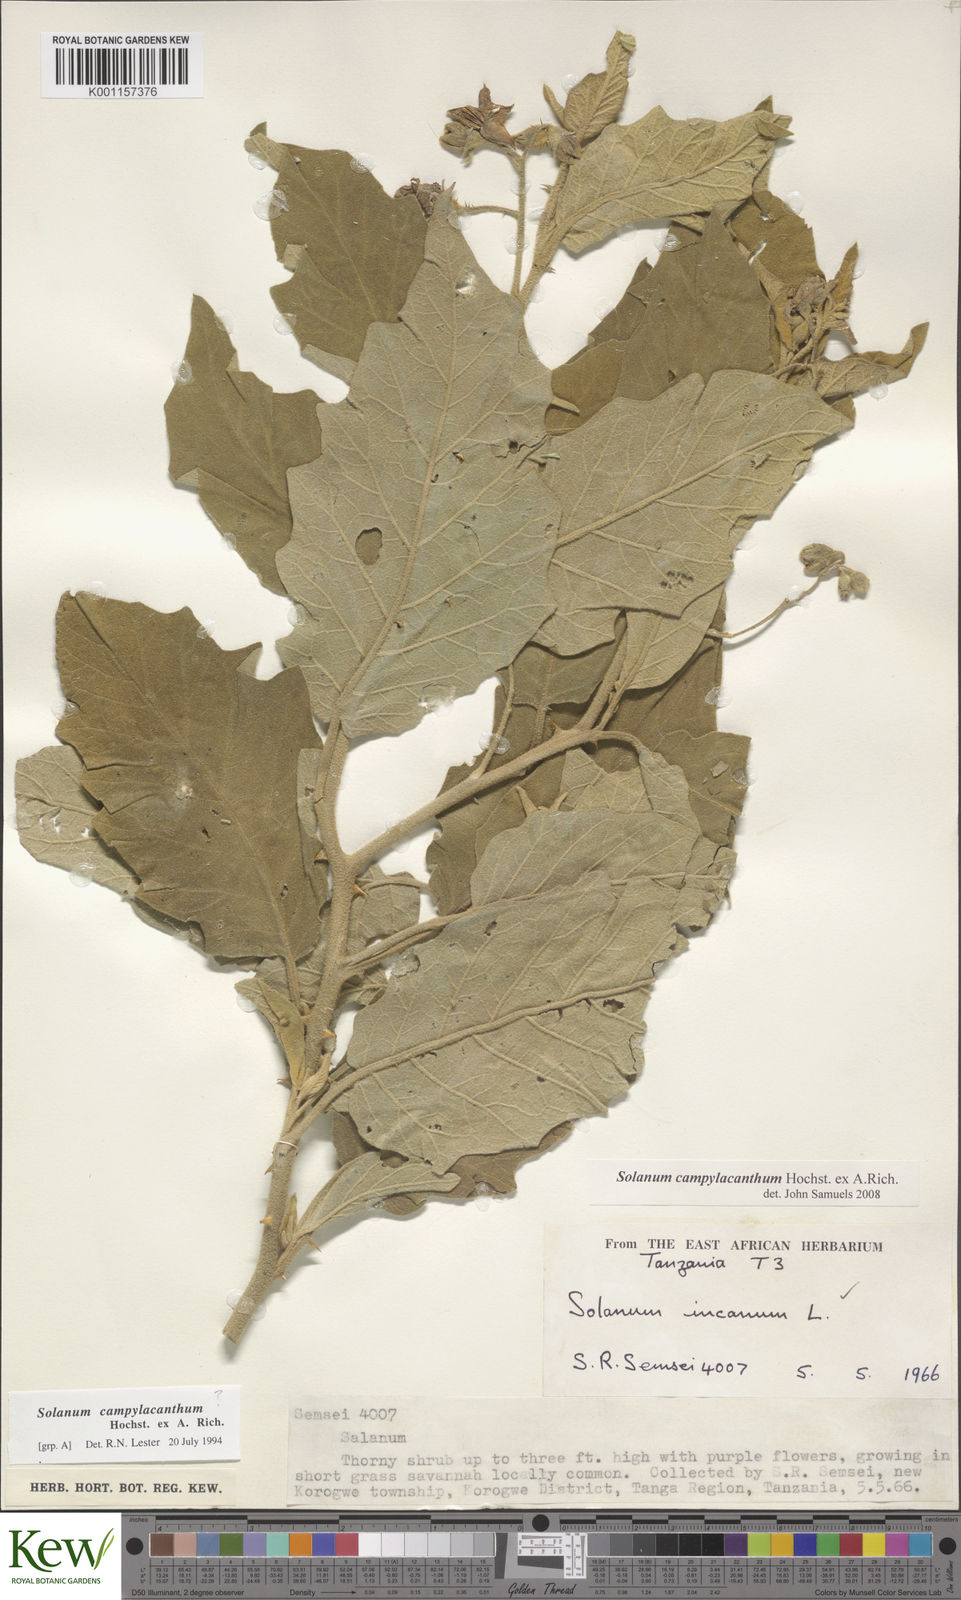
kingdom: Plantae
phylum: Tracheophyta
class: Magnoliopsida
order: Solanales
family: Solanaceae
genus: Solanum
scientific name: Solanum campylacanthum
